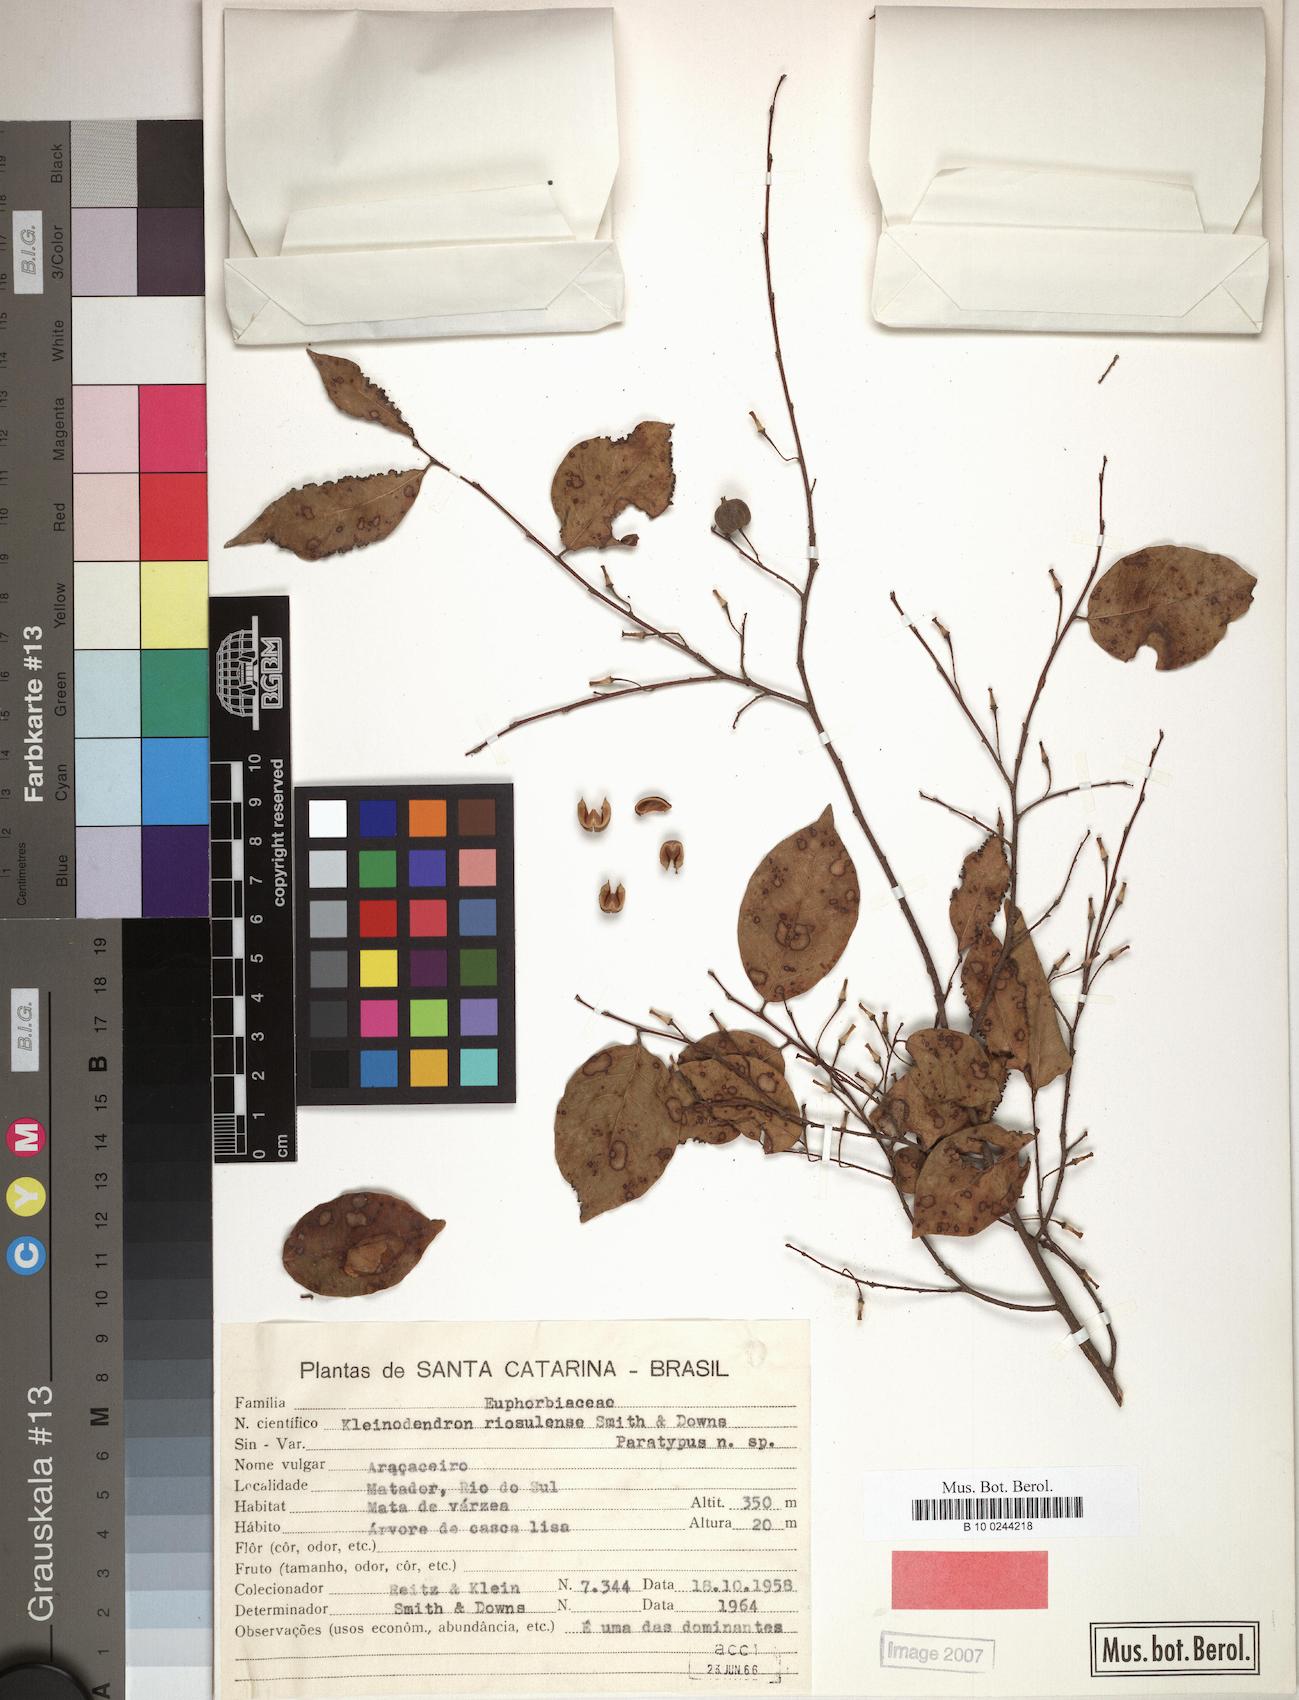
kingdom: Plantae
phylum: Tracheophyta
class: Magnoliopsida
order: Malpighiales
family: Phyllanthaceae
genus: Savia
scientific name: Savia dictyocarpa
